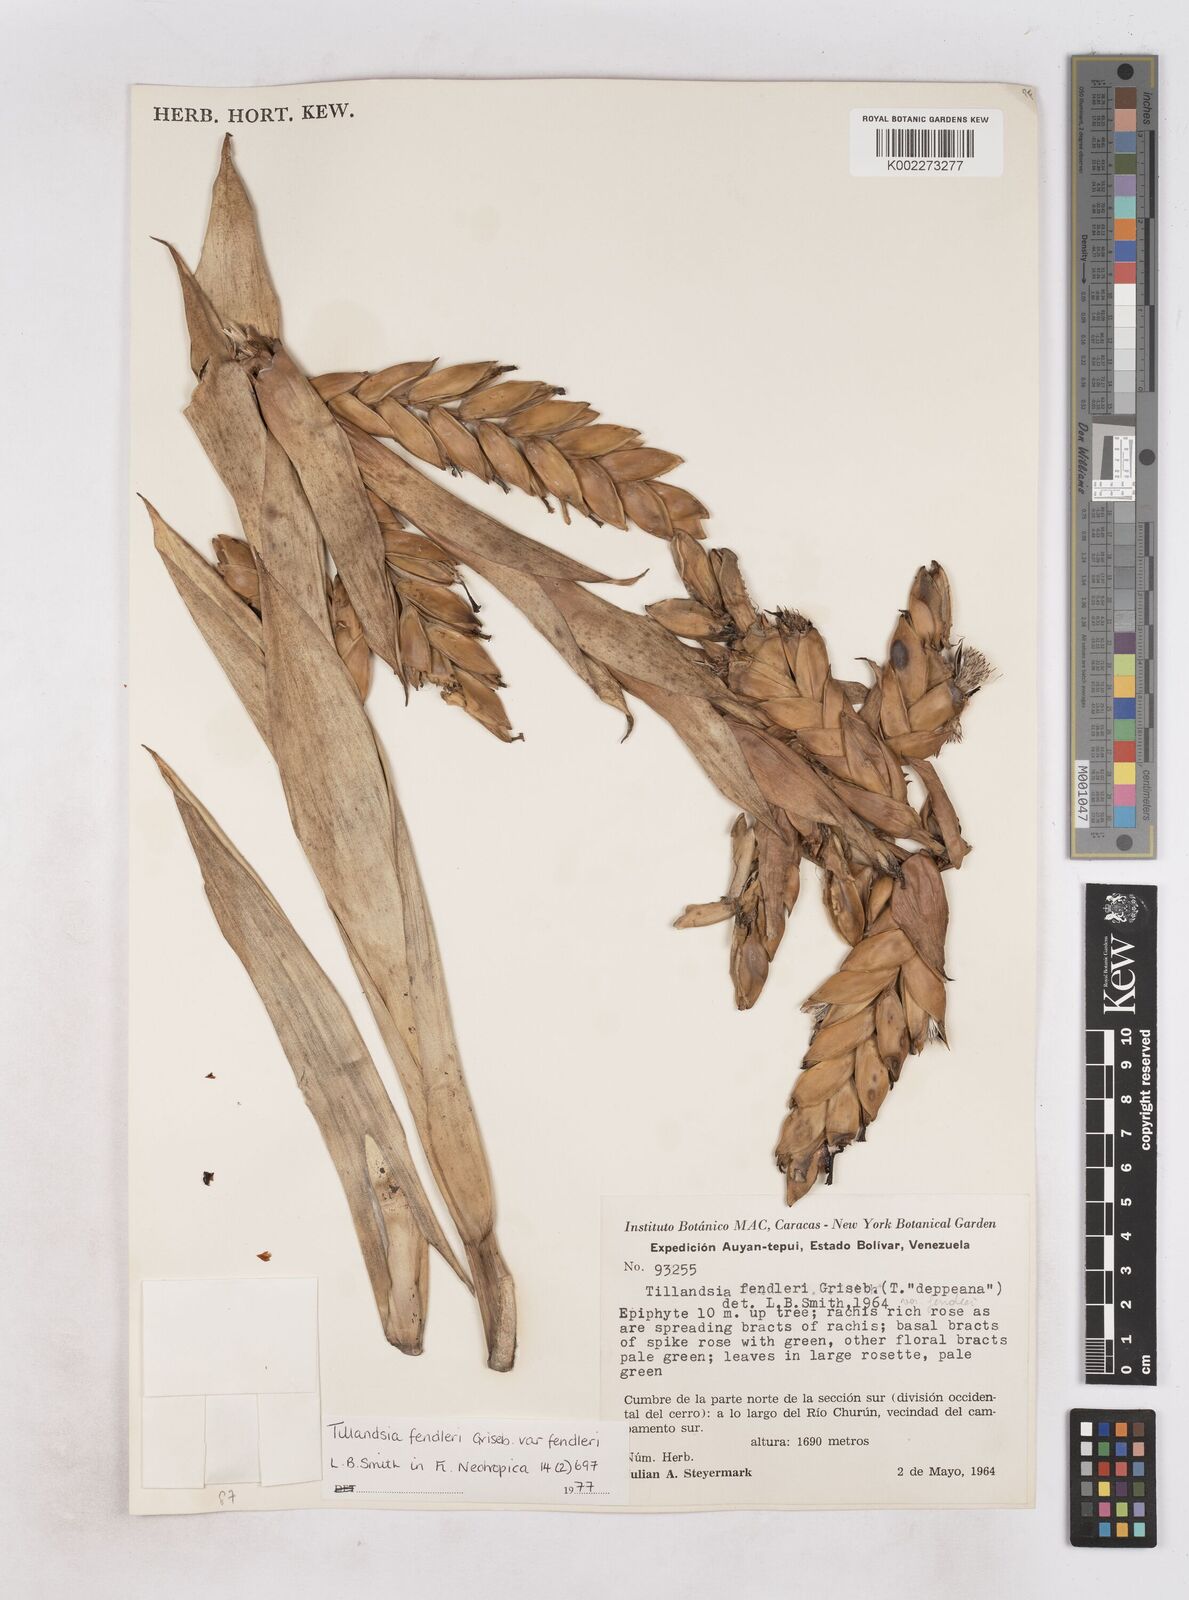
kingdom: Plantae
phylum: Tracheophyta
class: Liliopsida
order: Poales
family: Bromeliaceae
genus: Tillandsia
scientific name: Tillandsia fendleri
